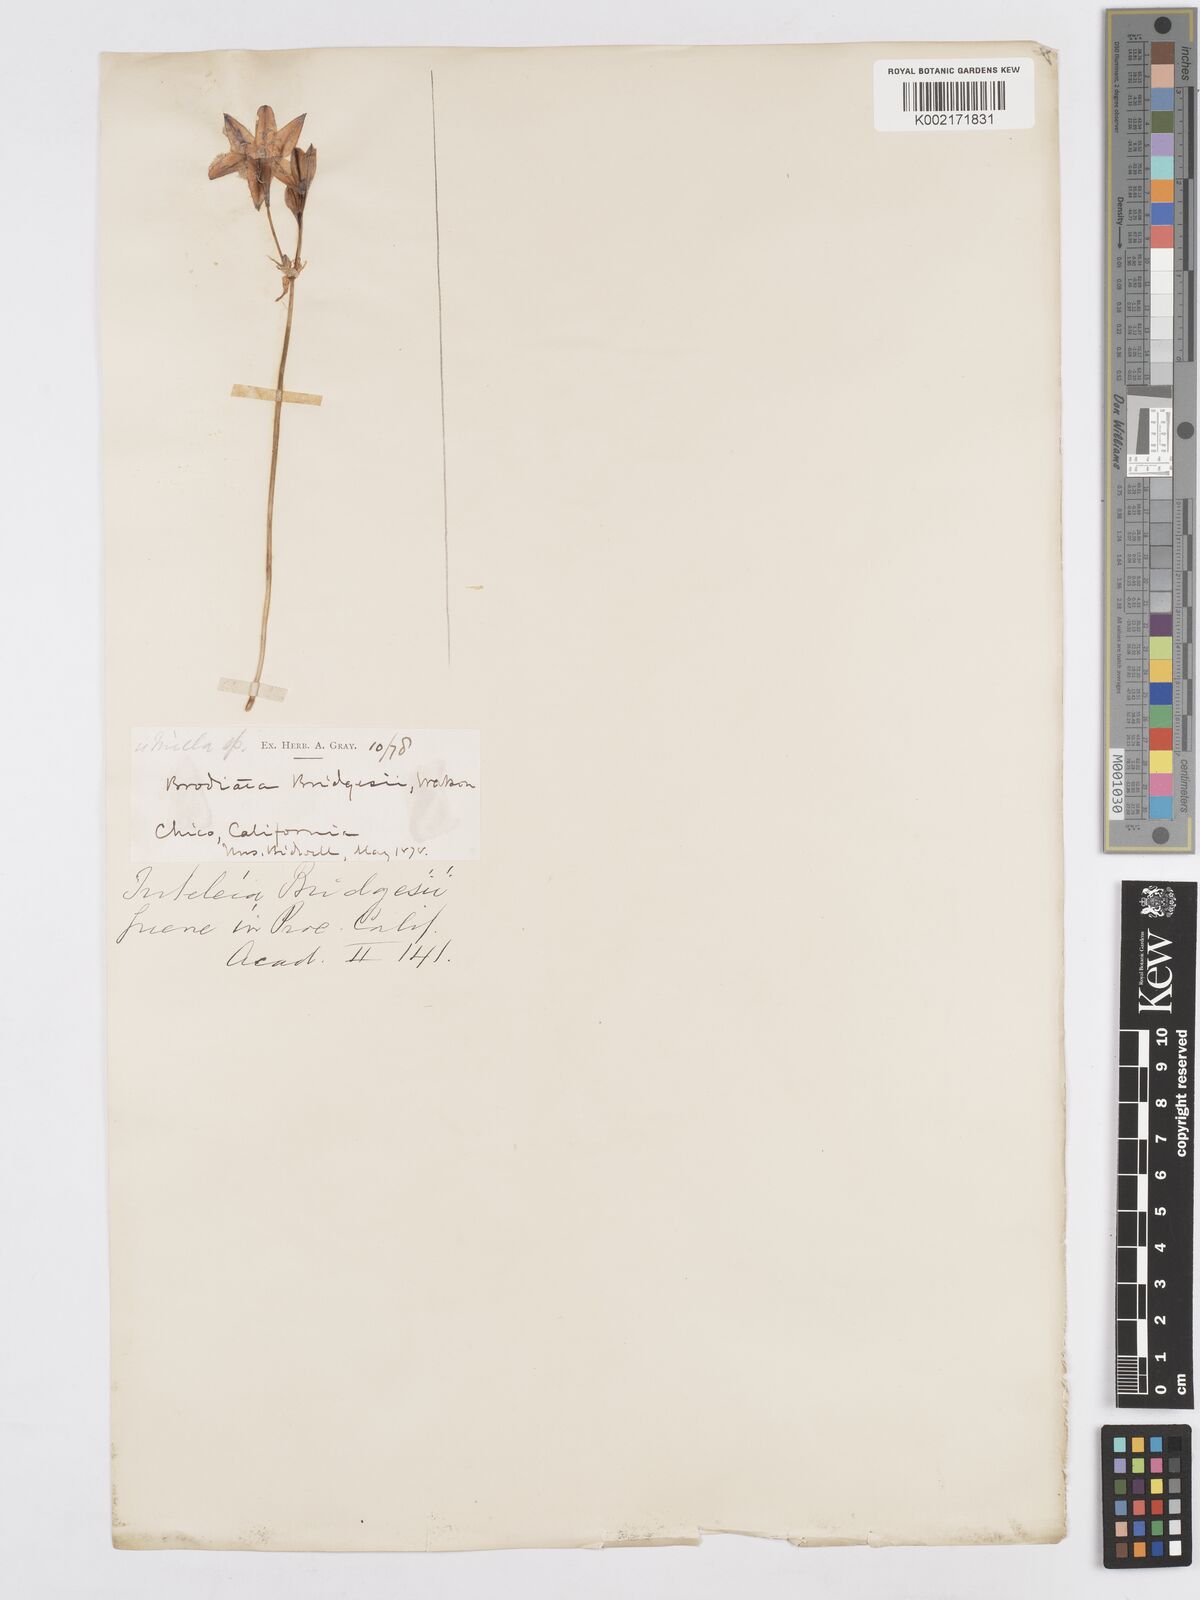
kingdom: Plantae
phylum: Tracheophyta
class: Liliopsida
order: Asparagales
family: Asparagaceae
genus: Triteleia
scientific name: Triteleia bridgesii
